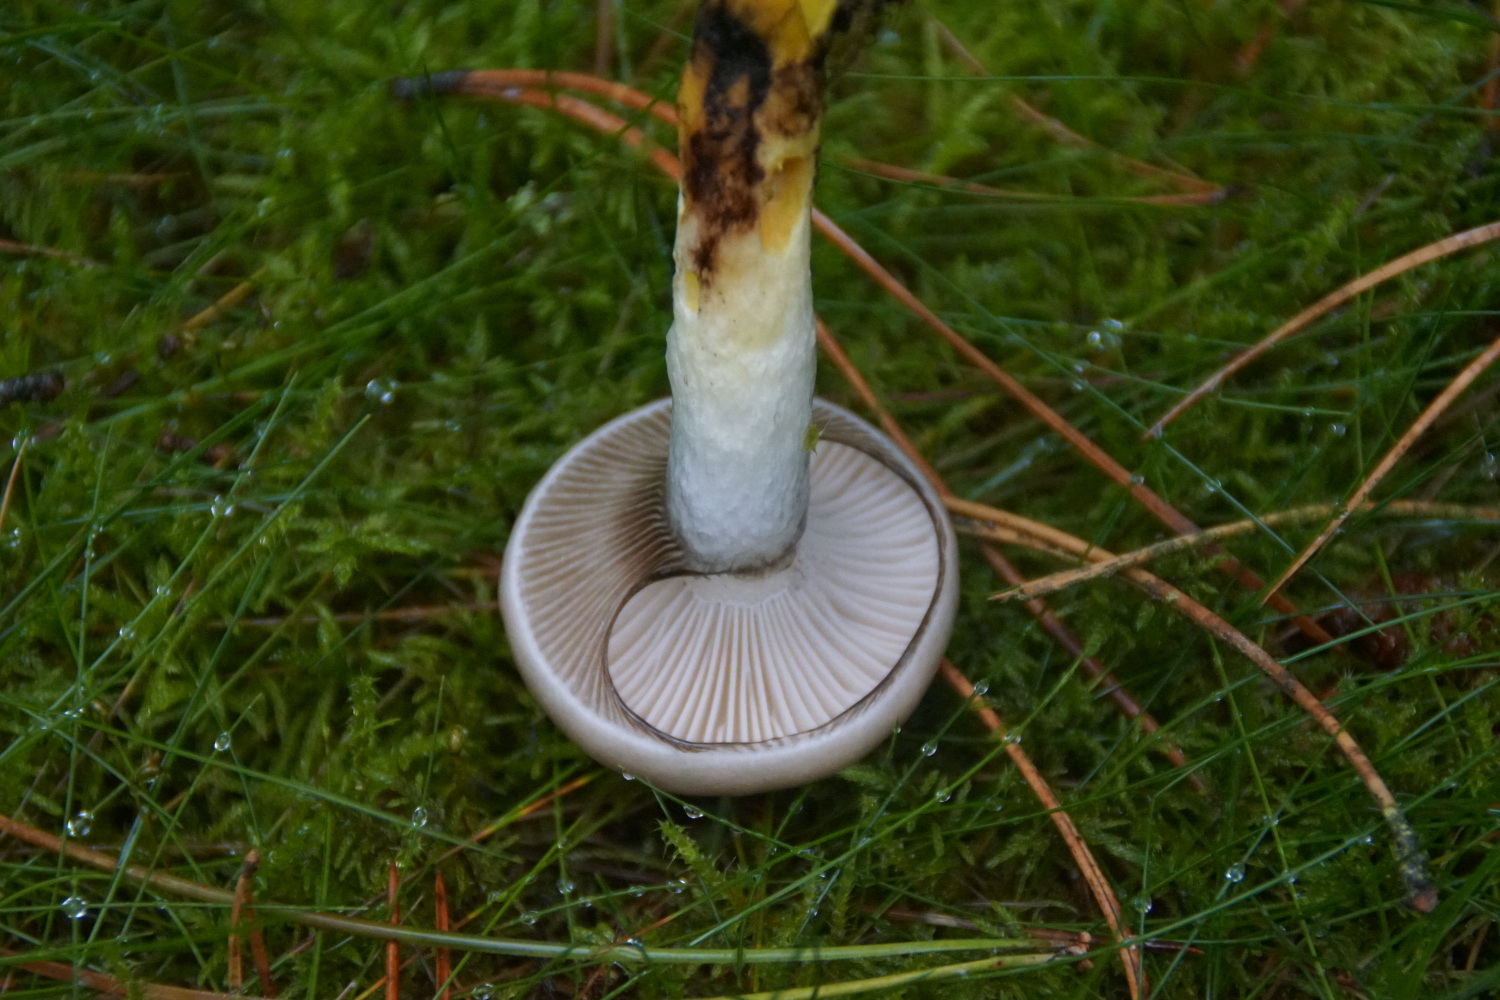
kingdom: Fungi
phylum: Basidiomycota
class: Agaricomycetes
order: Boletales
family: Gomphidiaceae
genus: Gomphidius
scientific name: Gomphidius glutinosus
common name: grå slimslør
